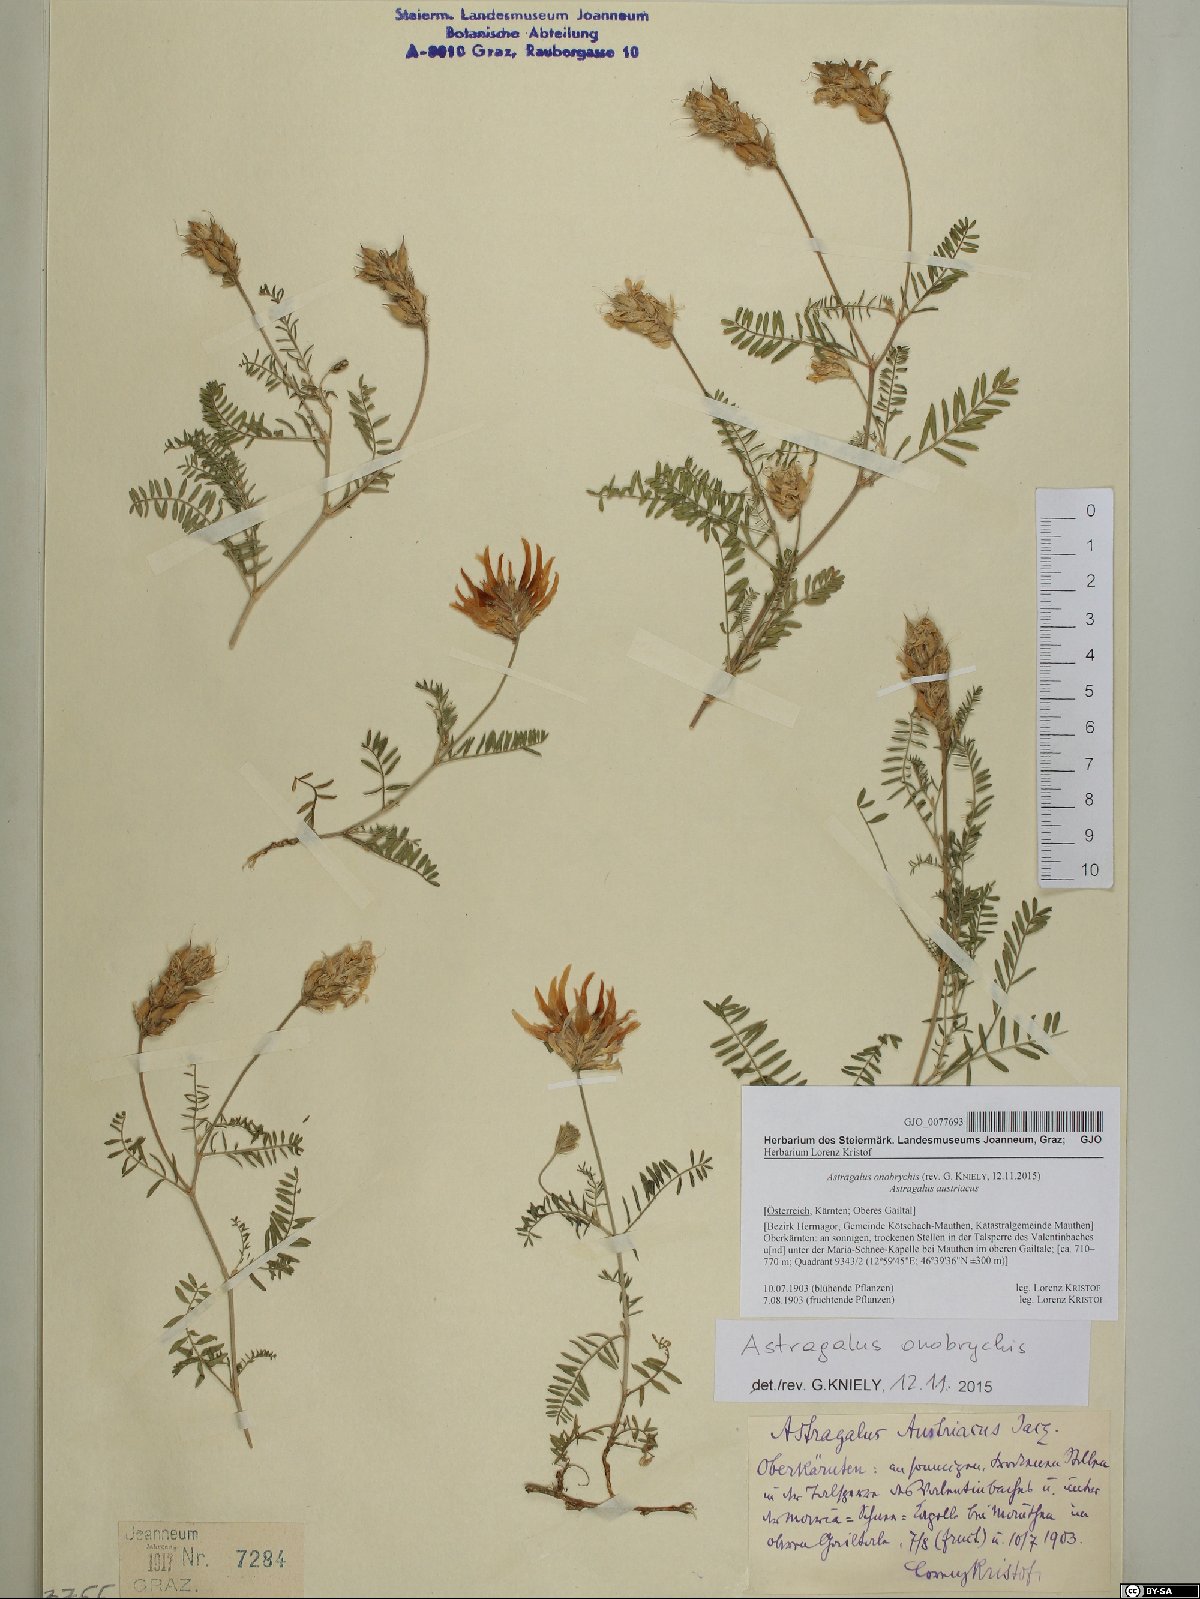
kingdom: Plantae
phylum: Tracheophyta
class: Magnoliopsida
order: Fabales
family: Fabaceae
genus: Astragalus
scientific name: Astragalus onobrychis
